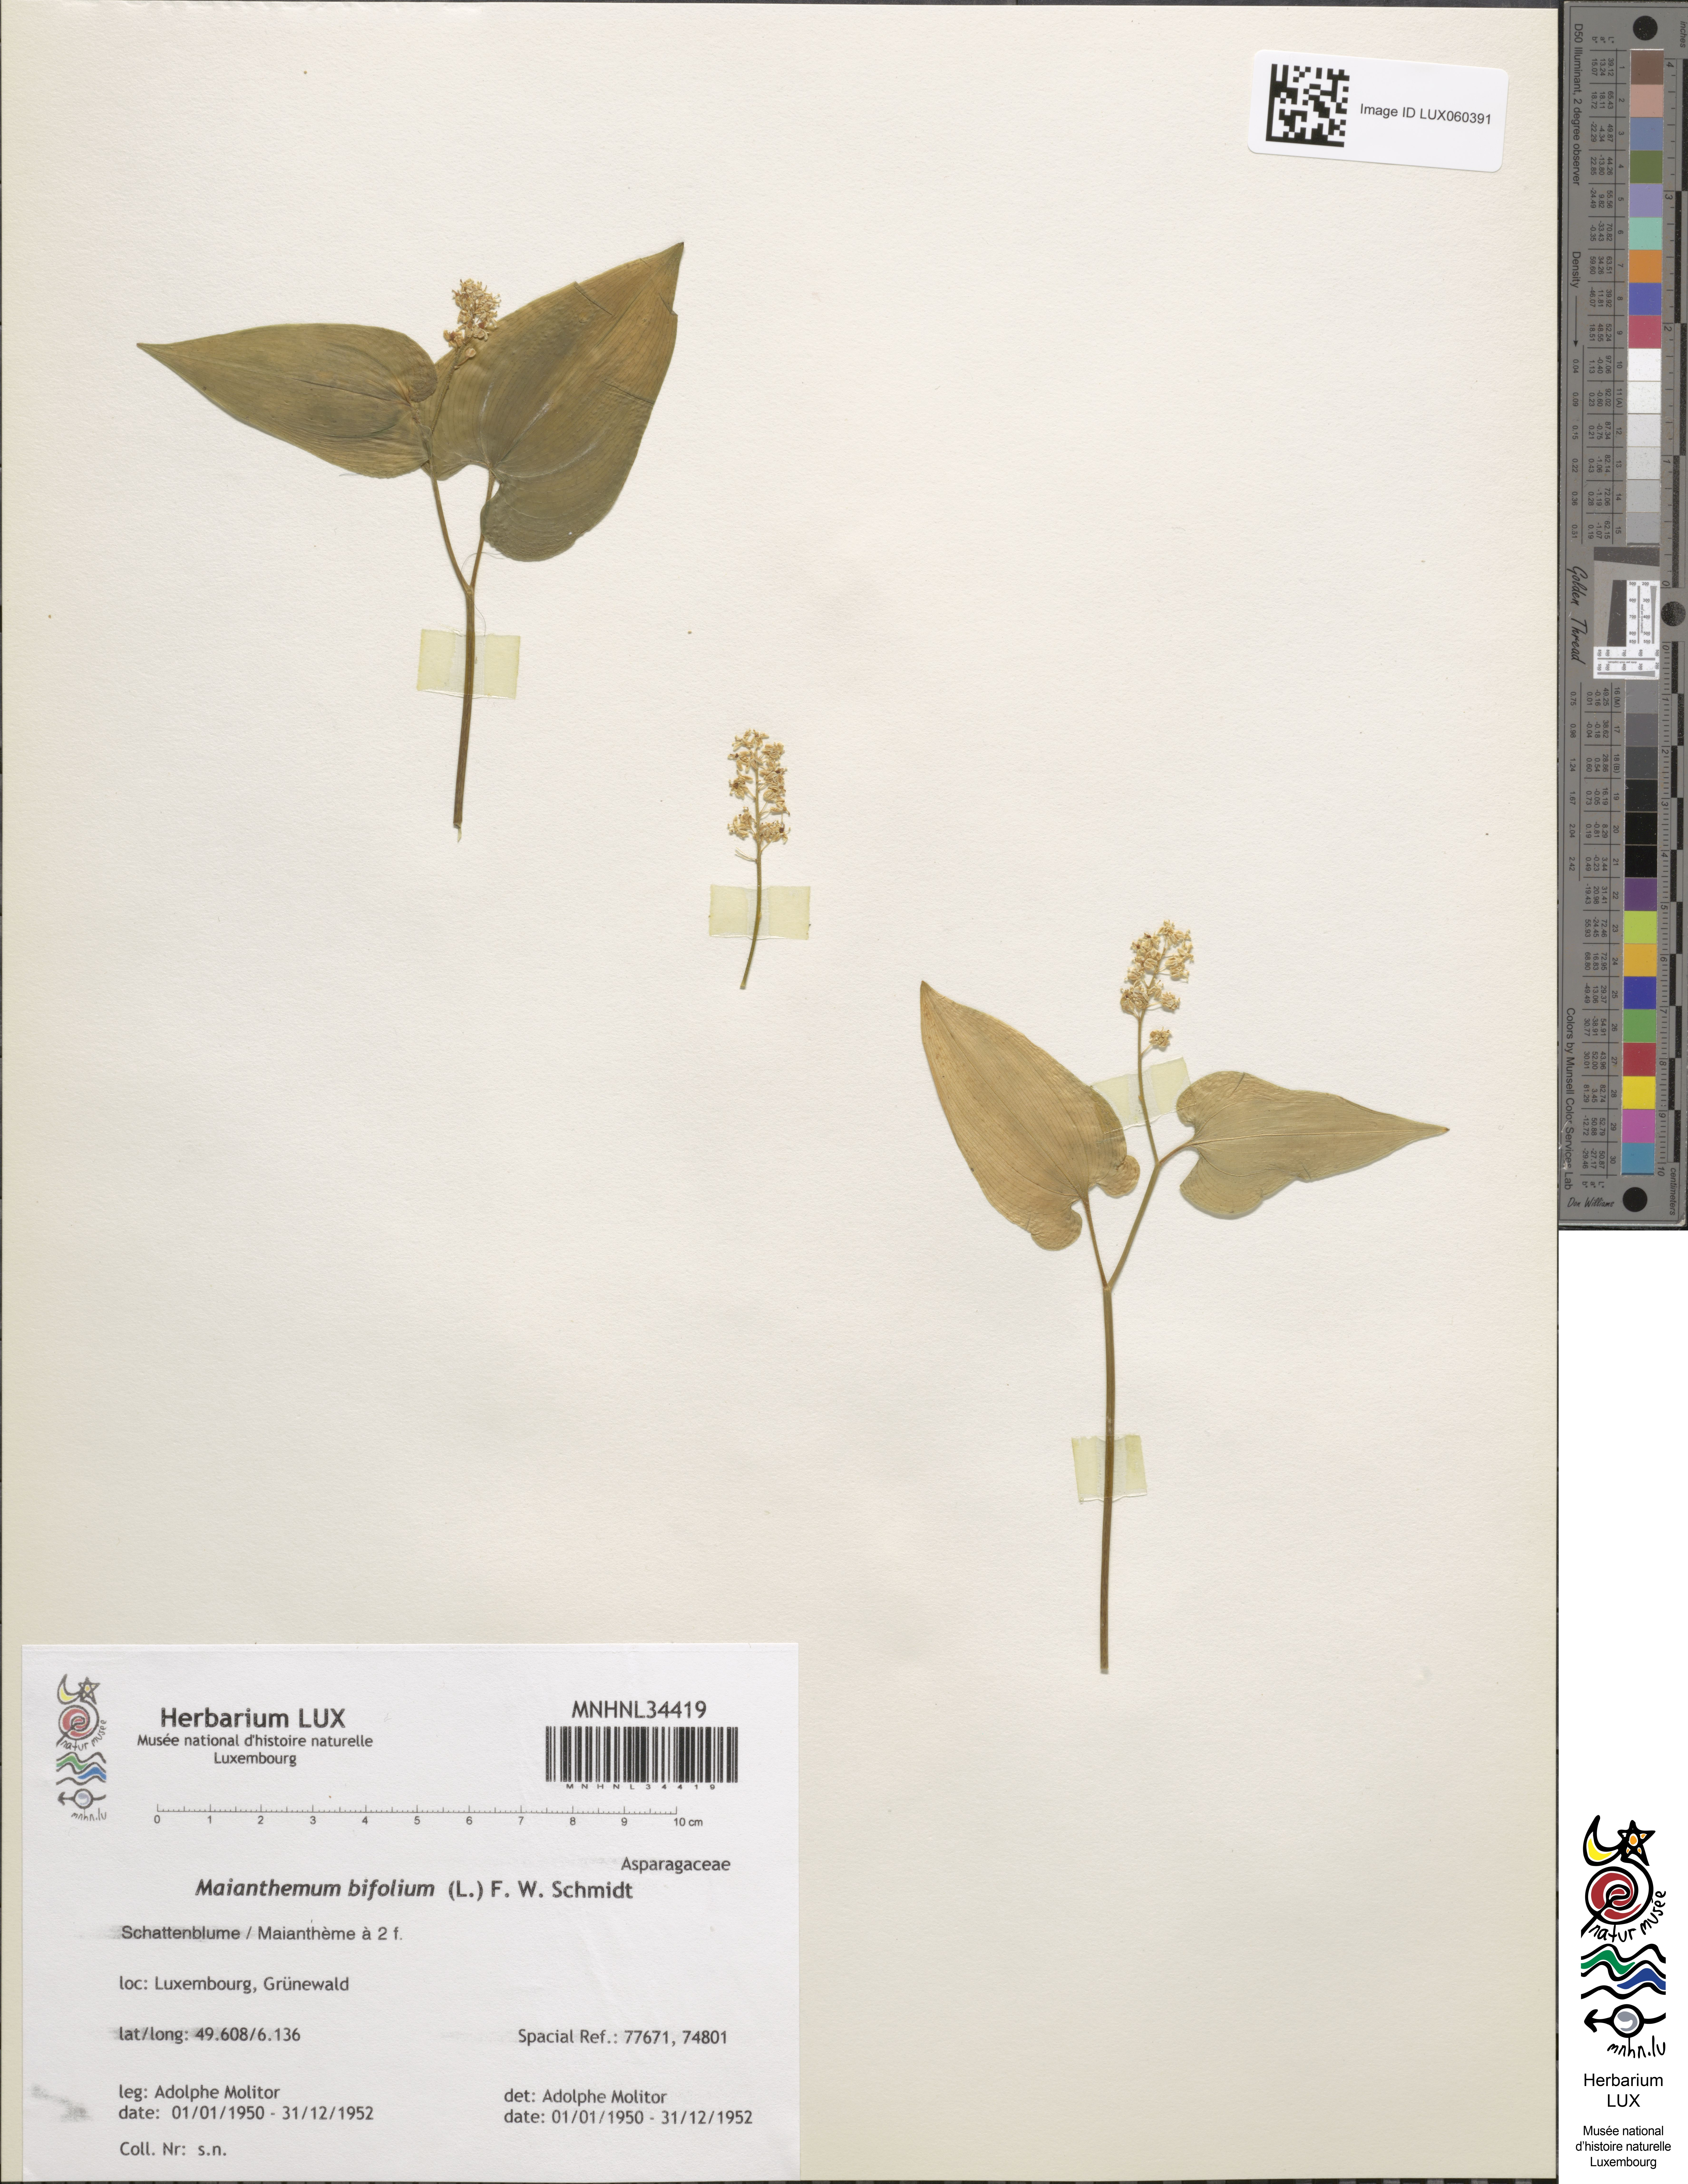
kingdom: Plantae
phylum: Tracheophyta
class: Liliopsida
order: Asparagales
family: Asparagaceae
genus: Maianthemum
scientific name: Maianthemum bifolium
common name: May lily
